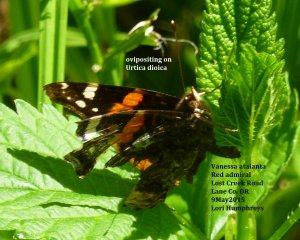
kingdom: Animalia
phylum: Arthropoda
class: Insecta
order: Lepidoptera
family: Nymphalidae
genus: Vanessa
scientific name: Vanessa atalanta
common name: Red Admiral
